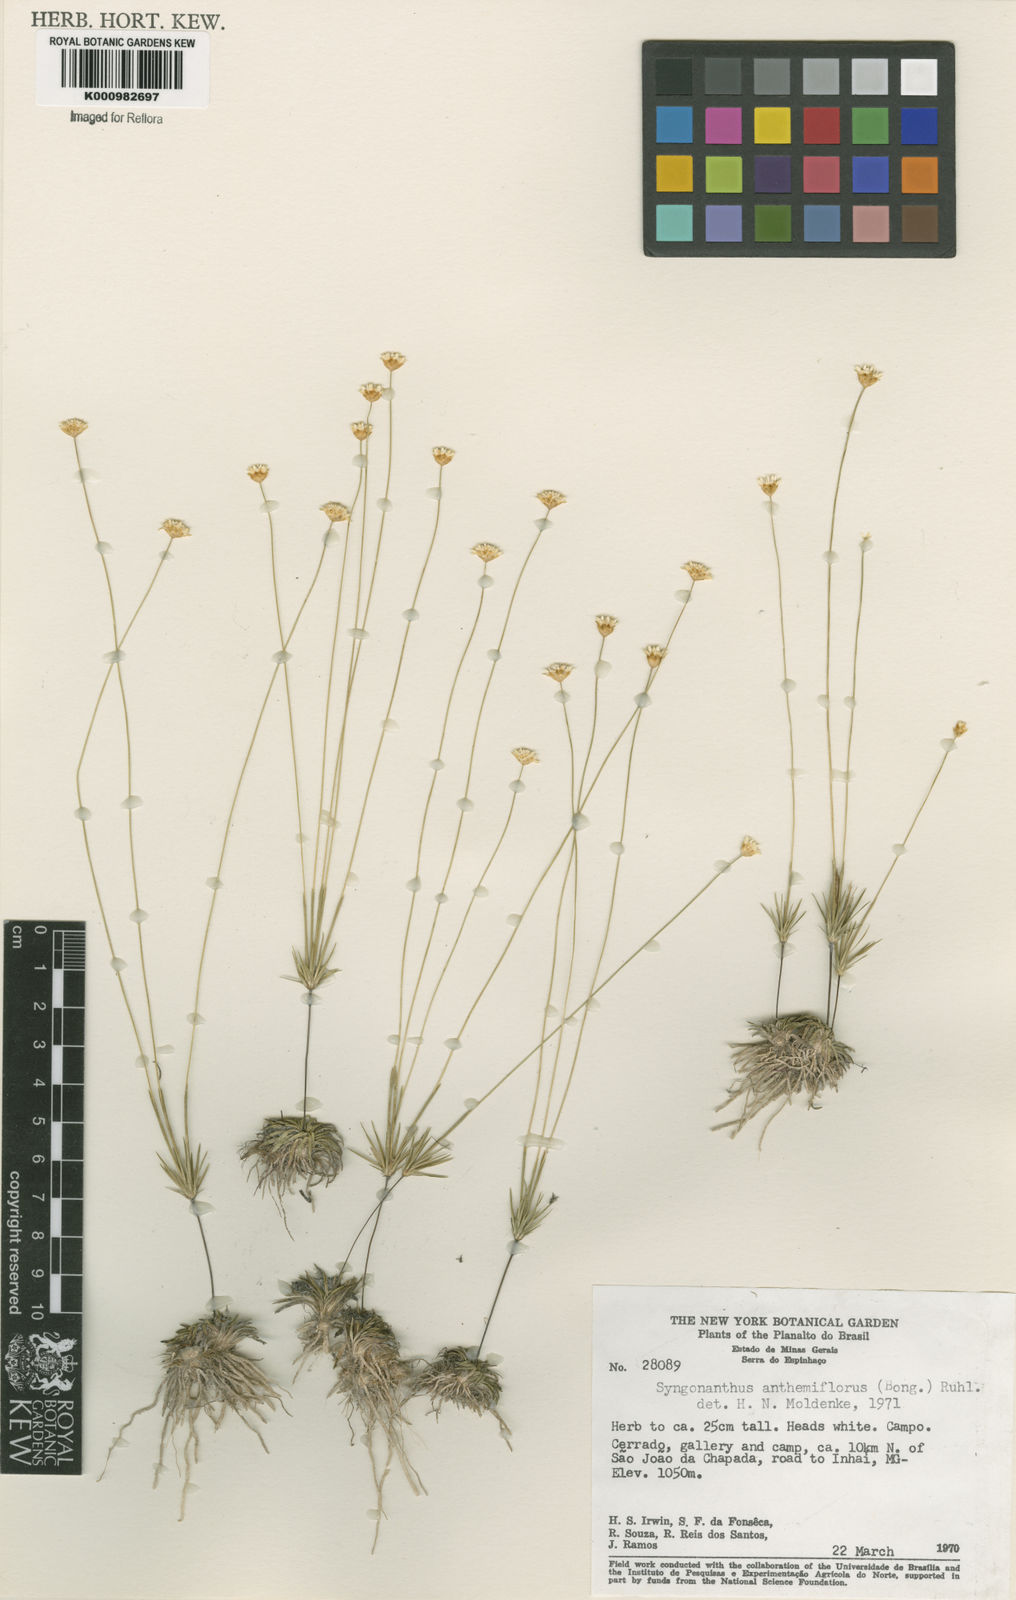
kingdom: Plantae
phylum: Tracheophyta
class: Liliopsida
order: Poales
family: Eriocaulaceae
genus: Syngonanthus
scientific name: Syngonanthus anthemidiflorus
